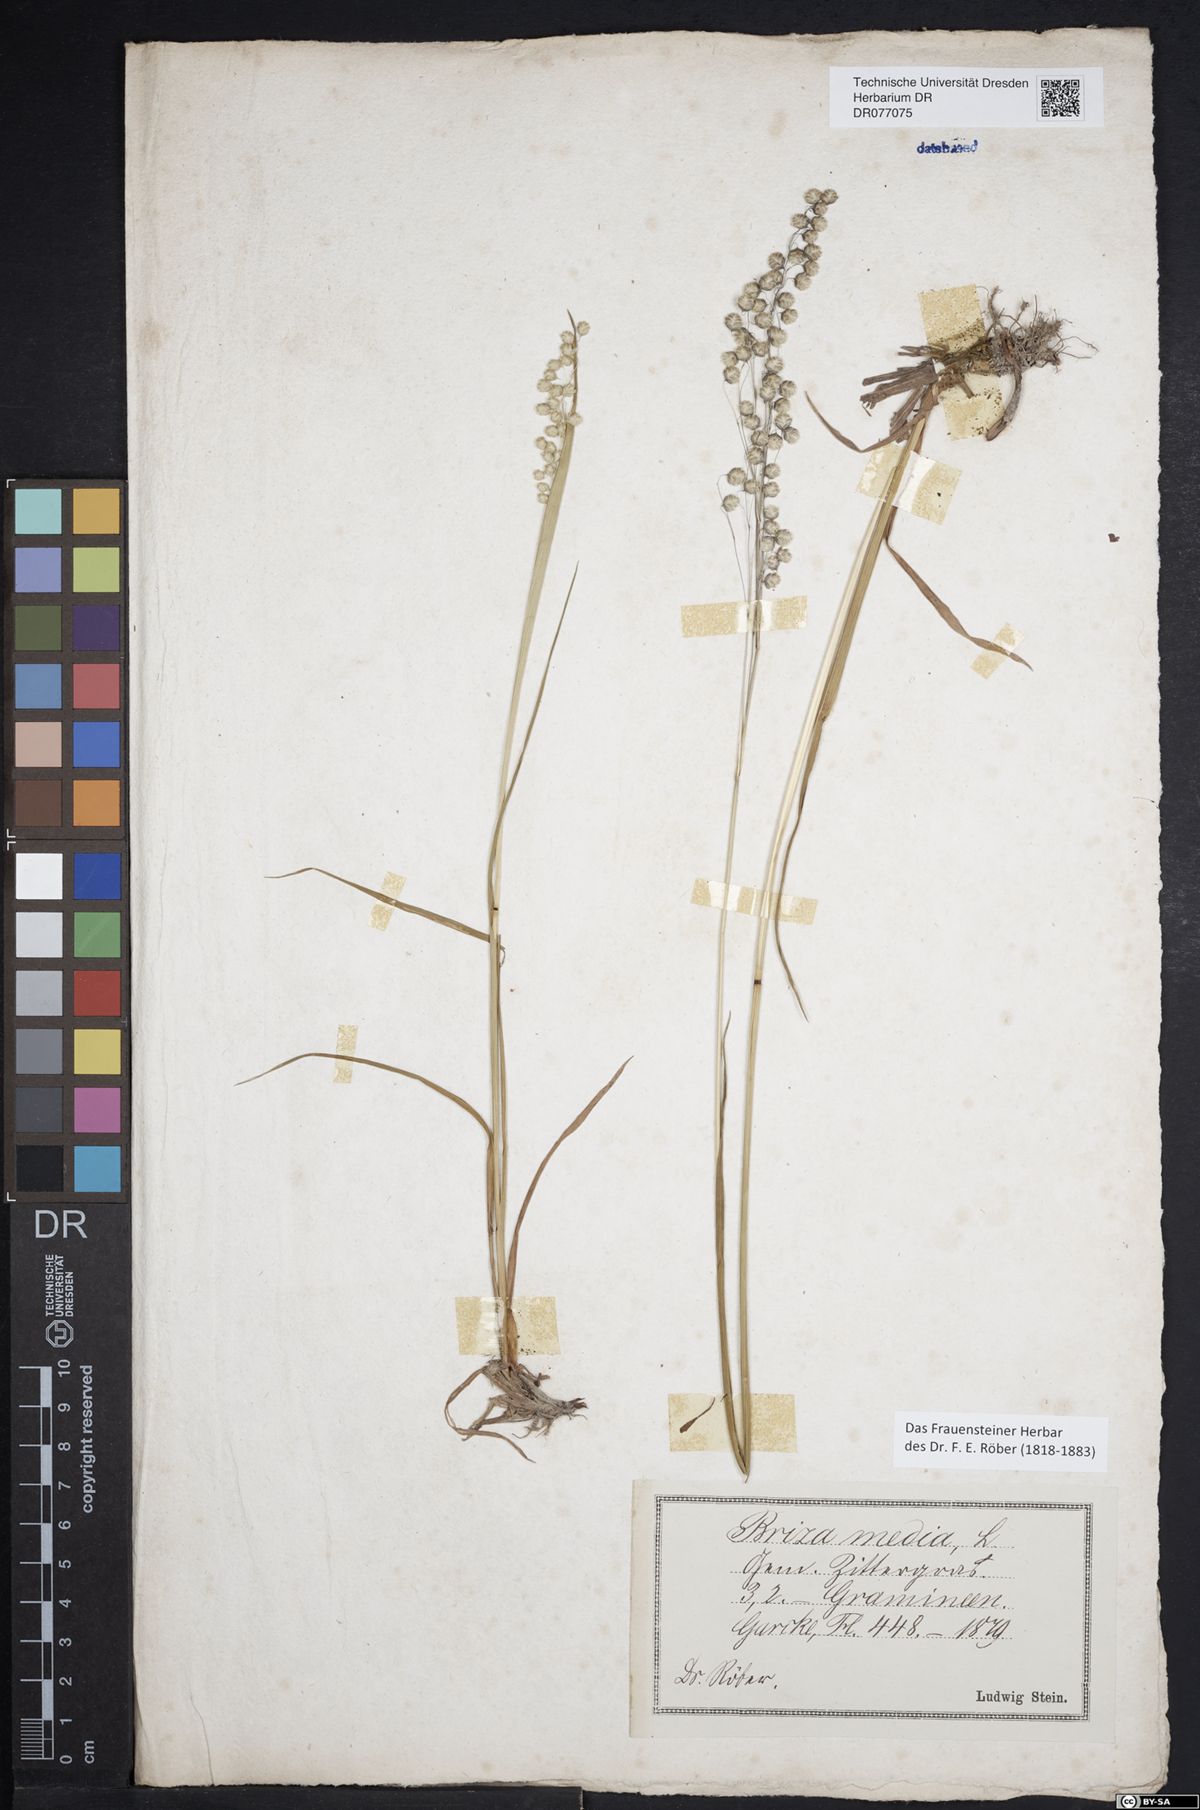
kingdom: Plantae
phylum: Tracheophyta
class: Liliopsida
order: Poales
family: Poaceae
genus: Briza
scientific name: Briza media
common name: Quaking grass
